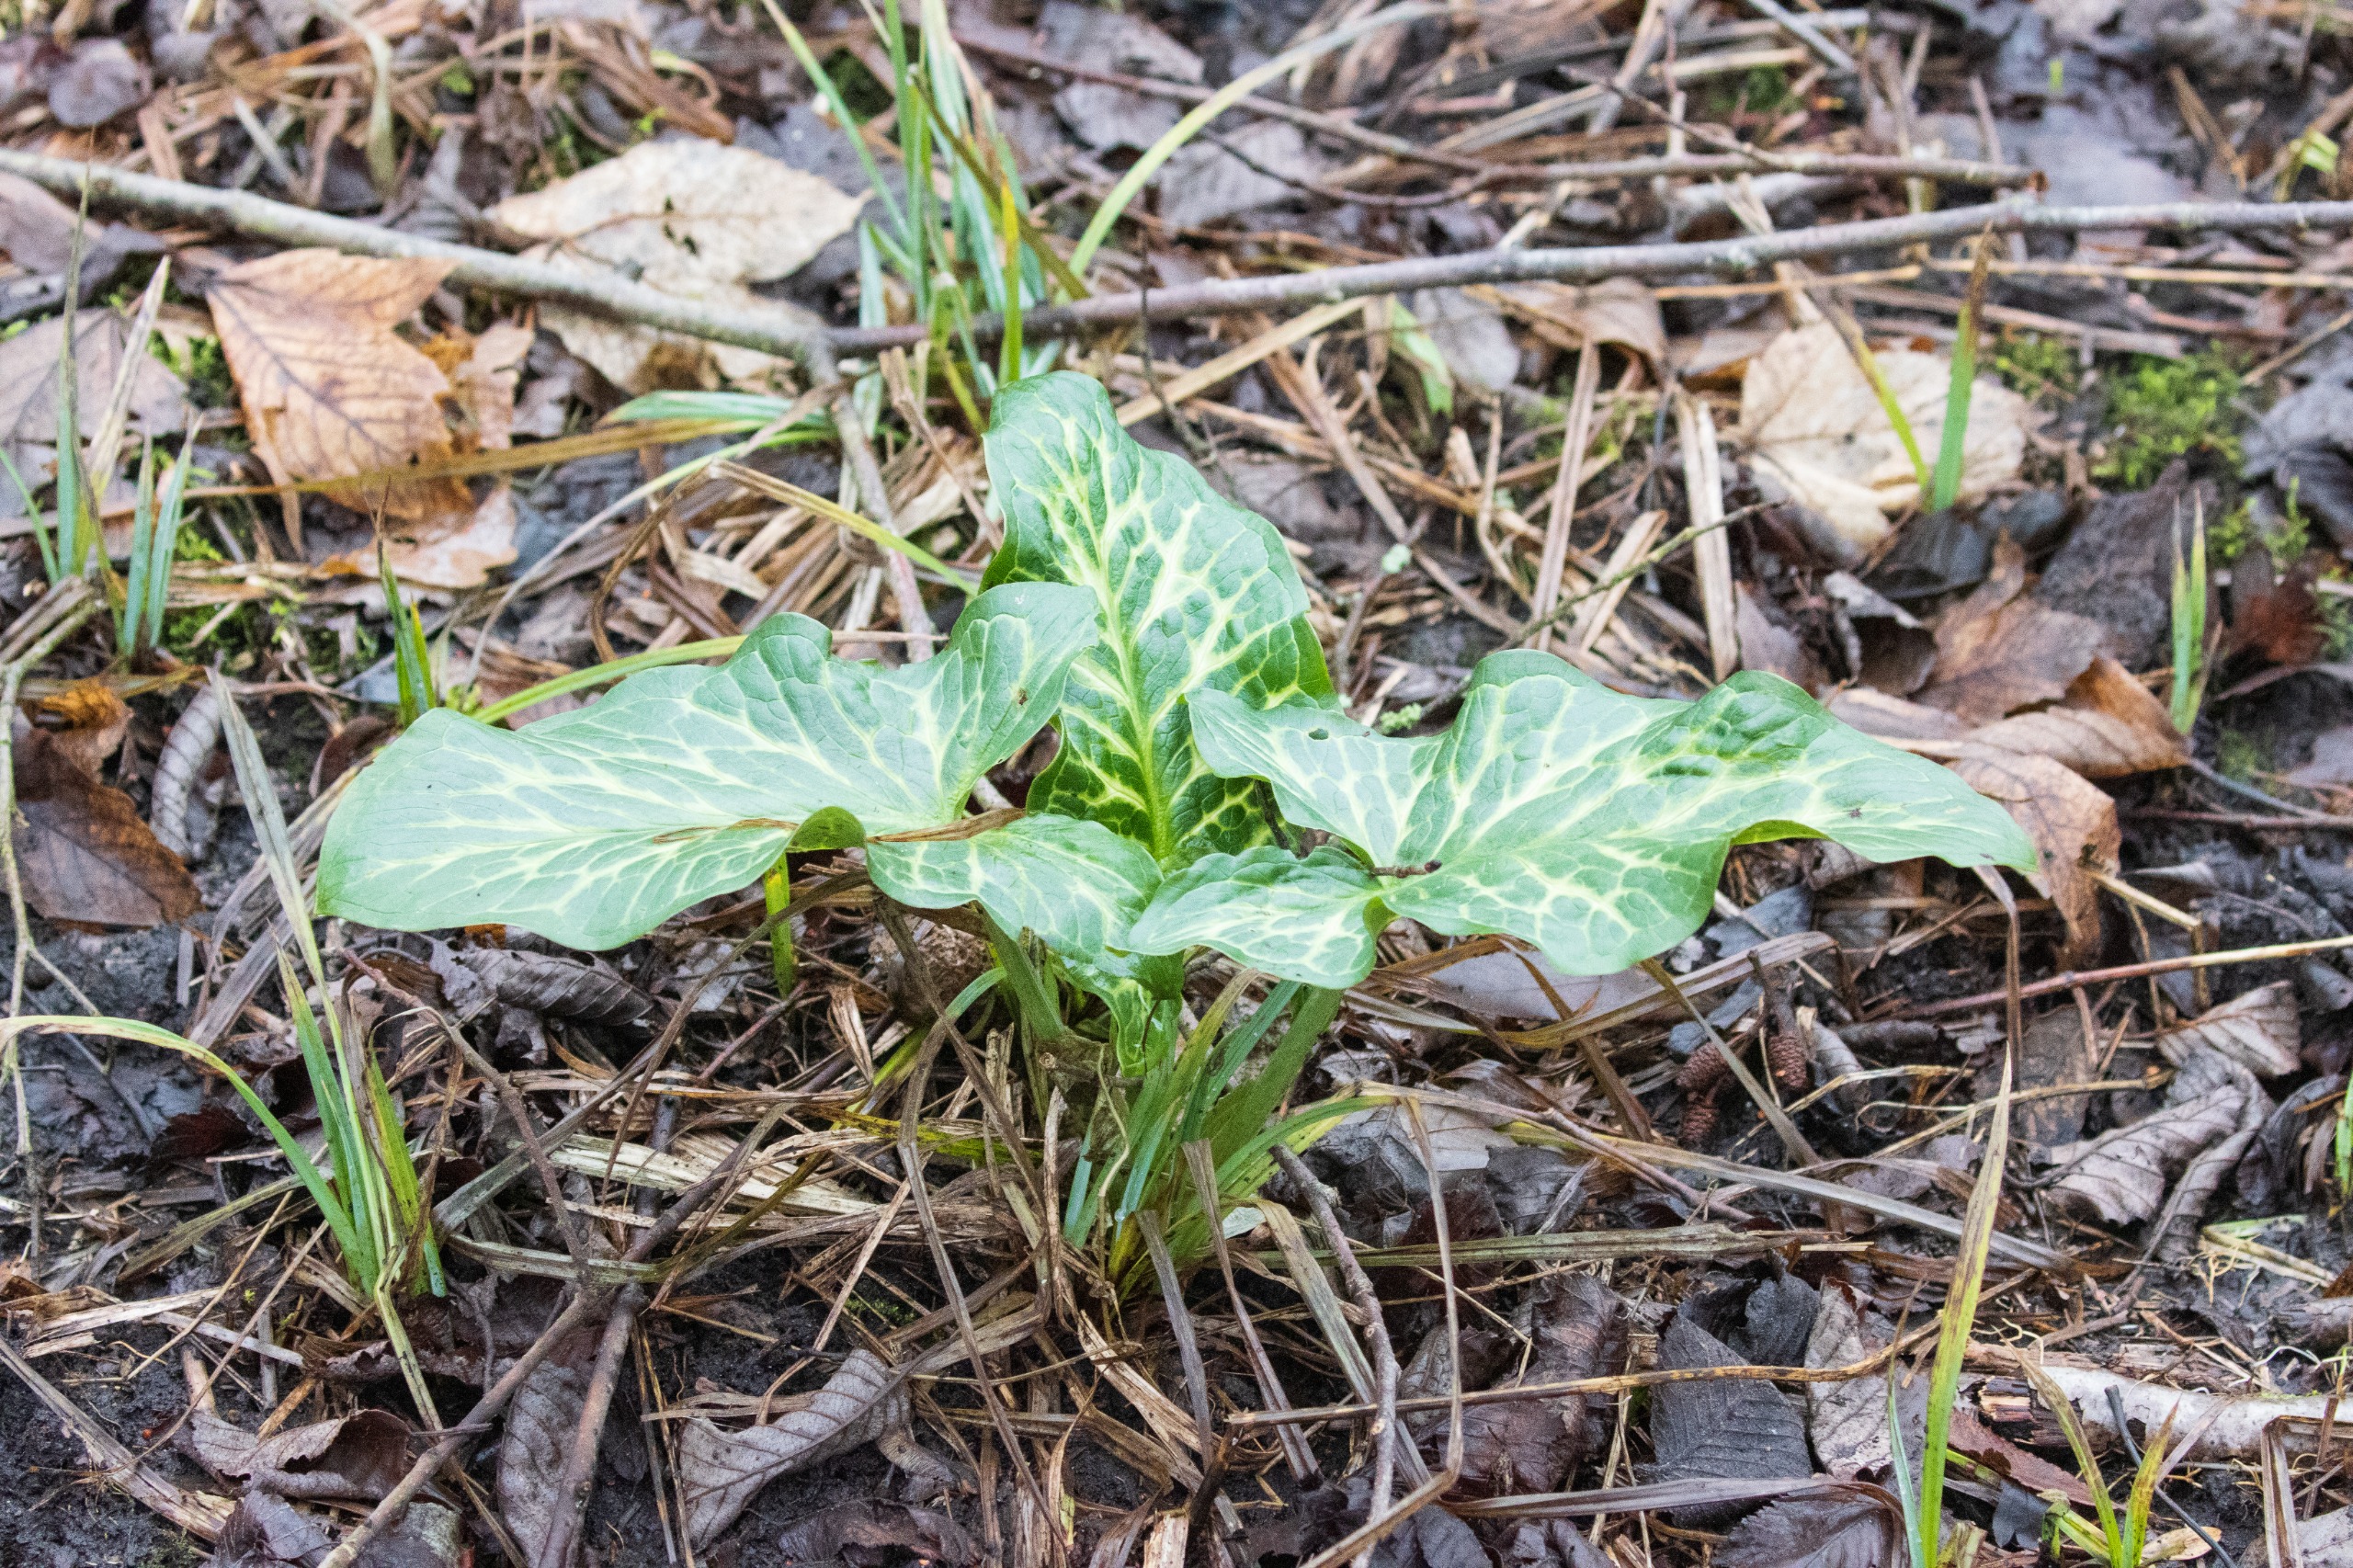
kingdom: Plantae
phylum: Tracheophyta
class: Liliopsida
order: Alismatales
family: Araceae
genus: Arum
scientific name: Arum italicum
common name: Italiensk arum
